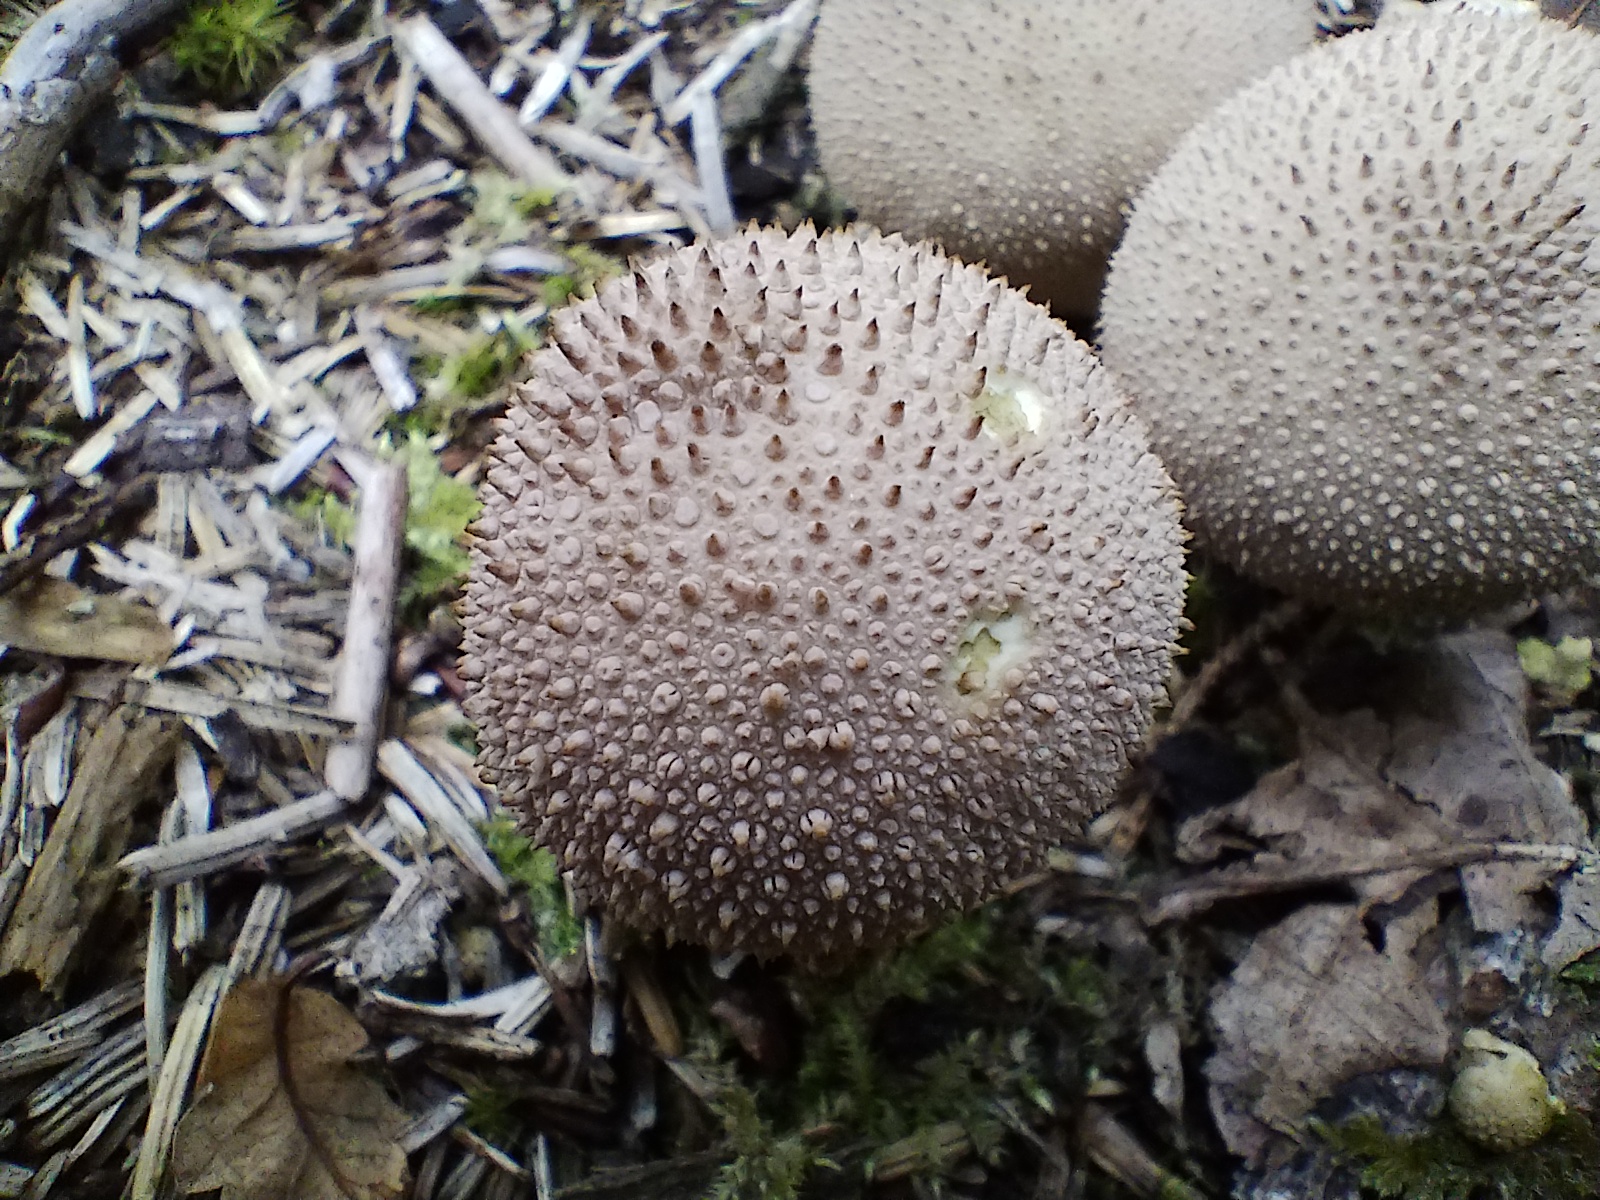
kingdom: Fungi
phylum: Basidiomycota
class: Agaricomycetes
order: Agaricales
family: Lycoperdaceae
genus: Lycoperdon
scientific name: Lycoperdon perlatum
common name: krystal-støvbold
